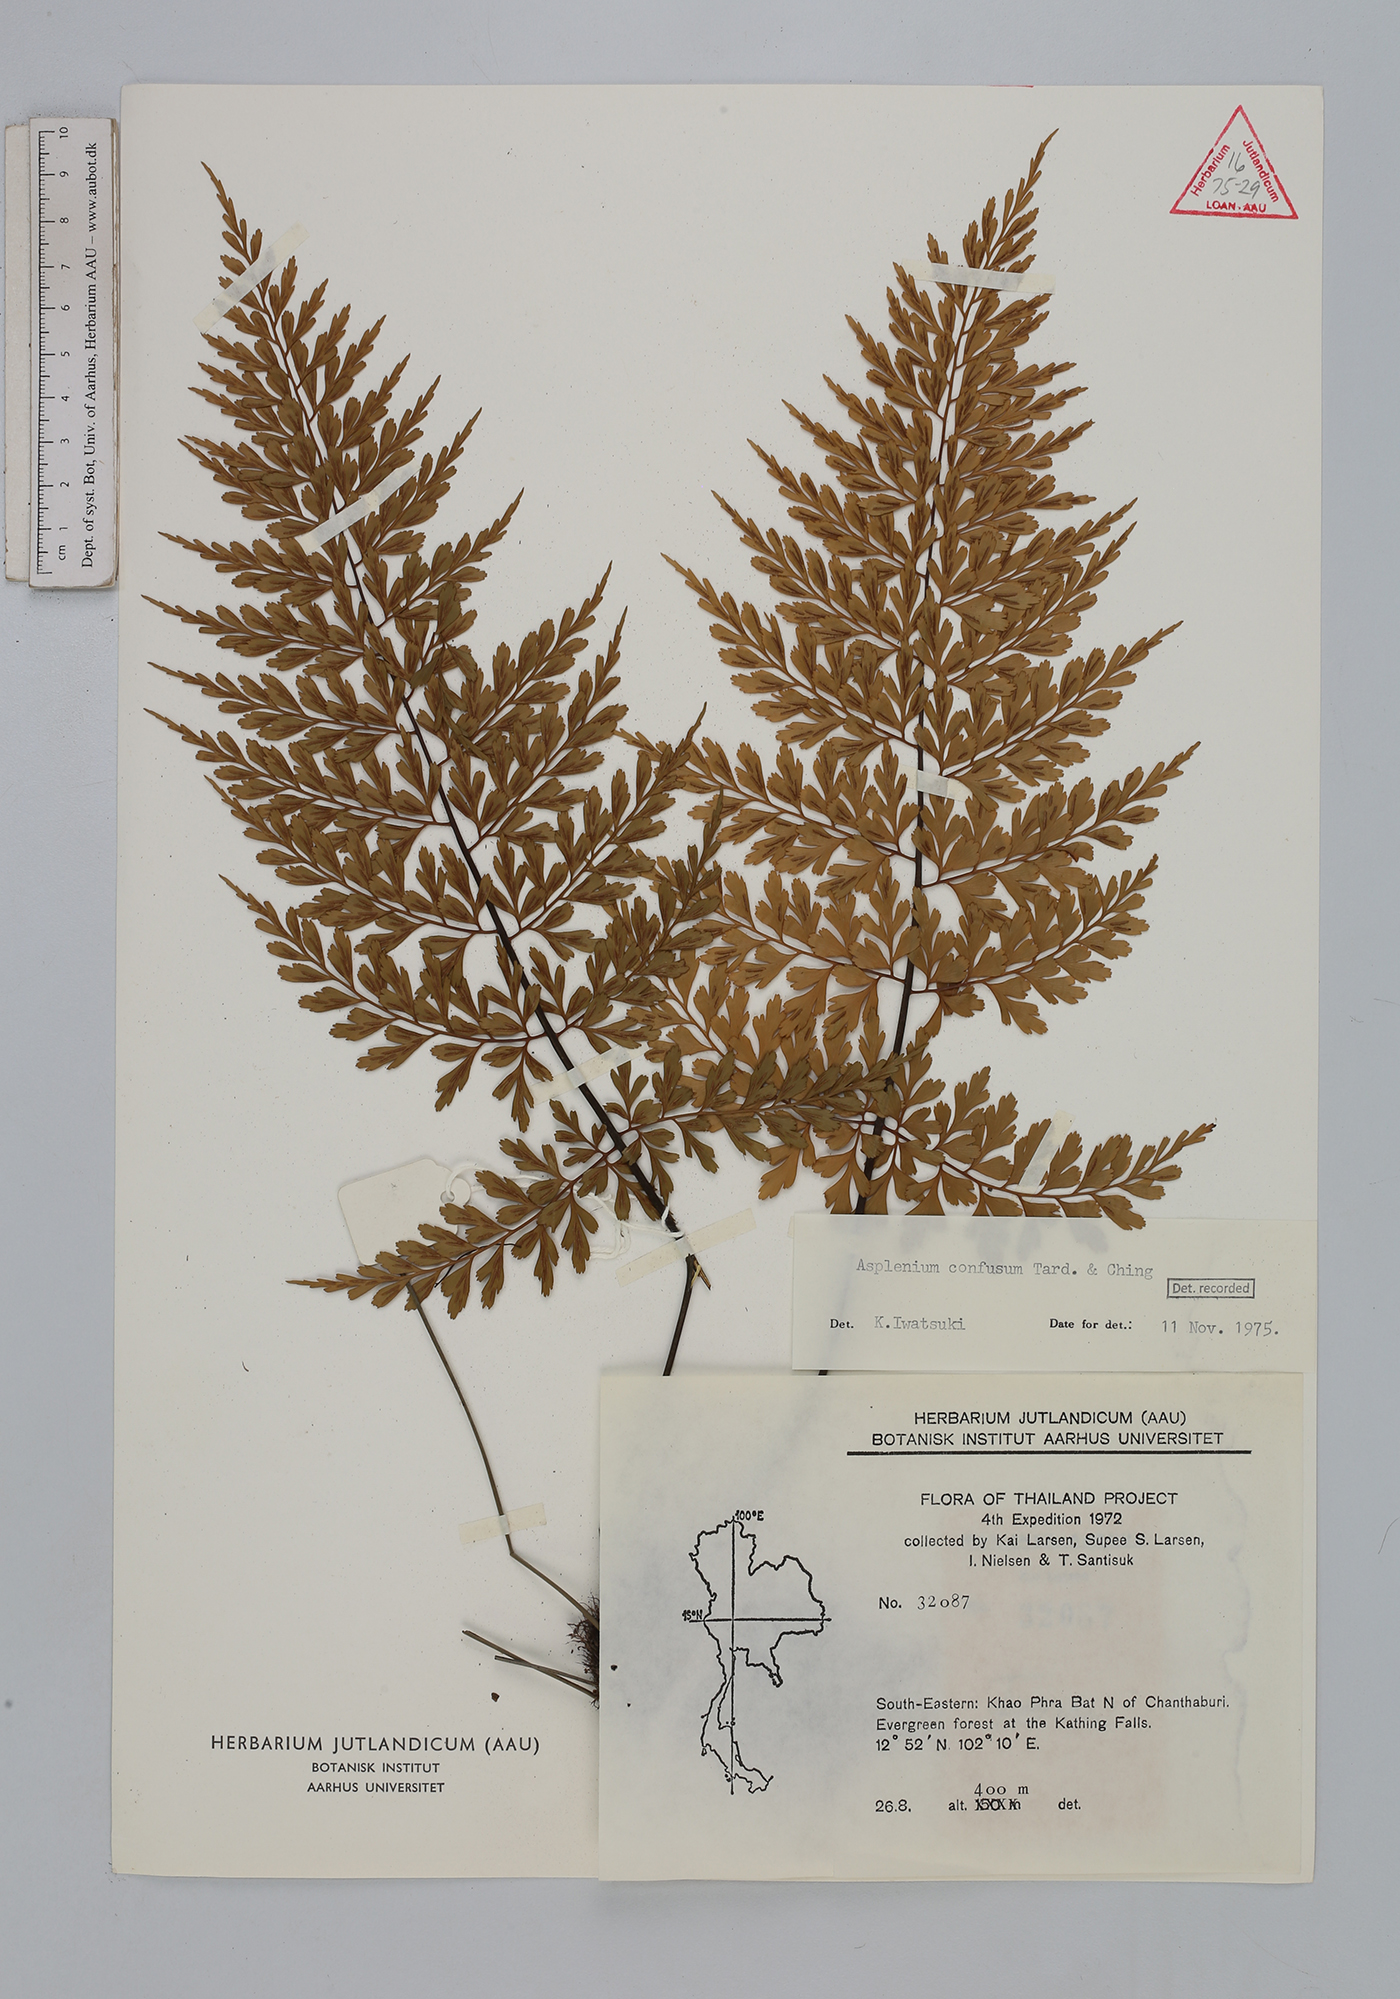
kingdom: Plantae
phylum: Tracheophyta
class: Polypodiopsida
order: Polypodiales
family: Aspleniaceae
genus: Asplenium
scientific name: Asplenium cristatum
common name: Parsley spleenwort
